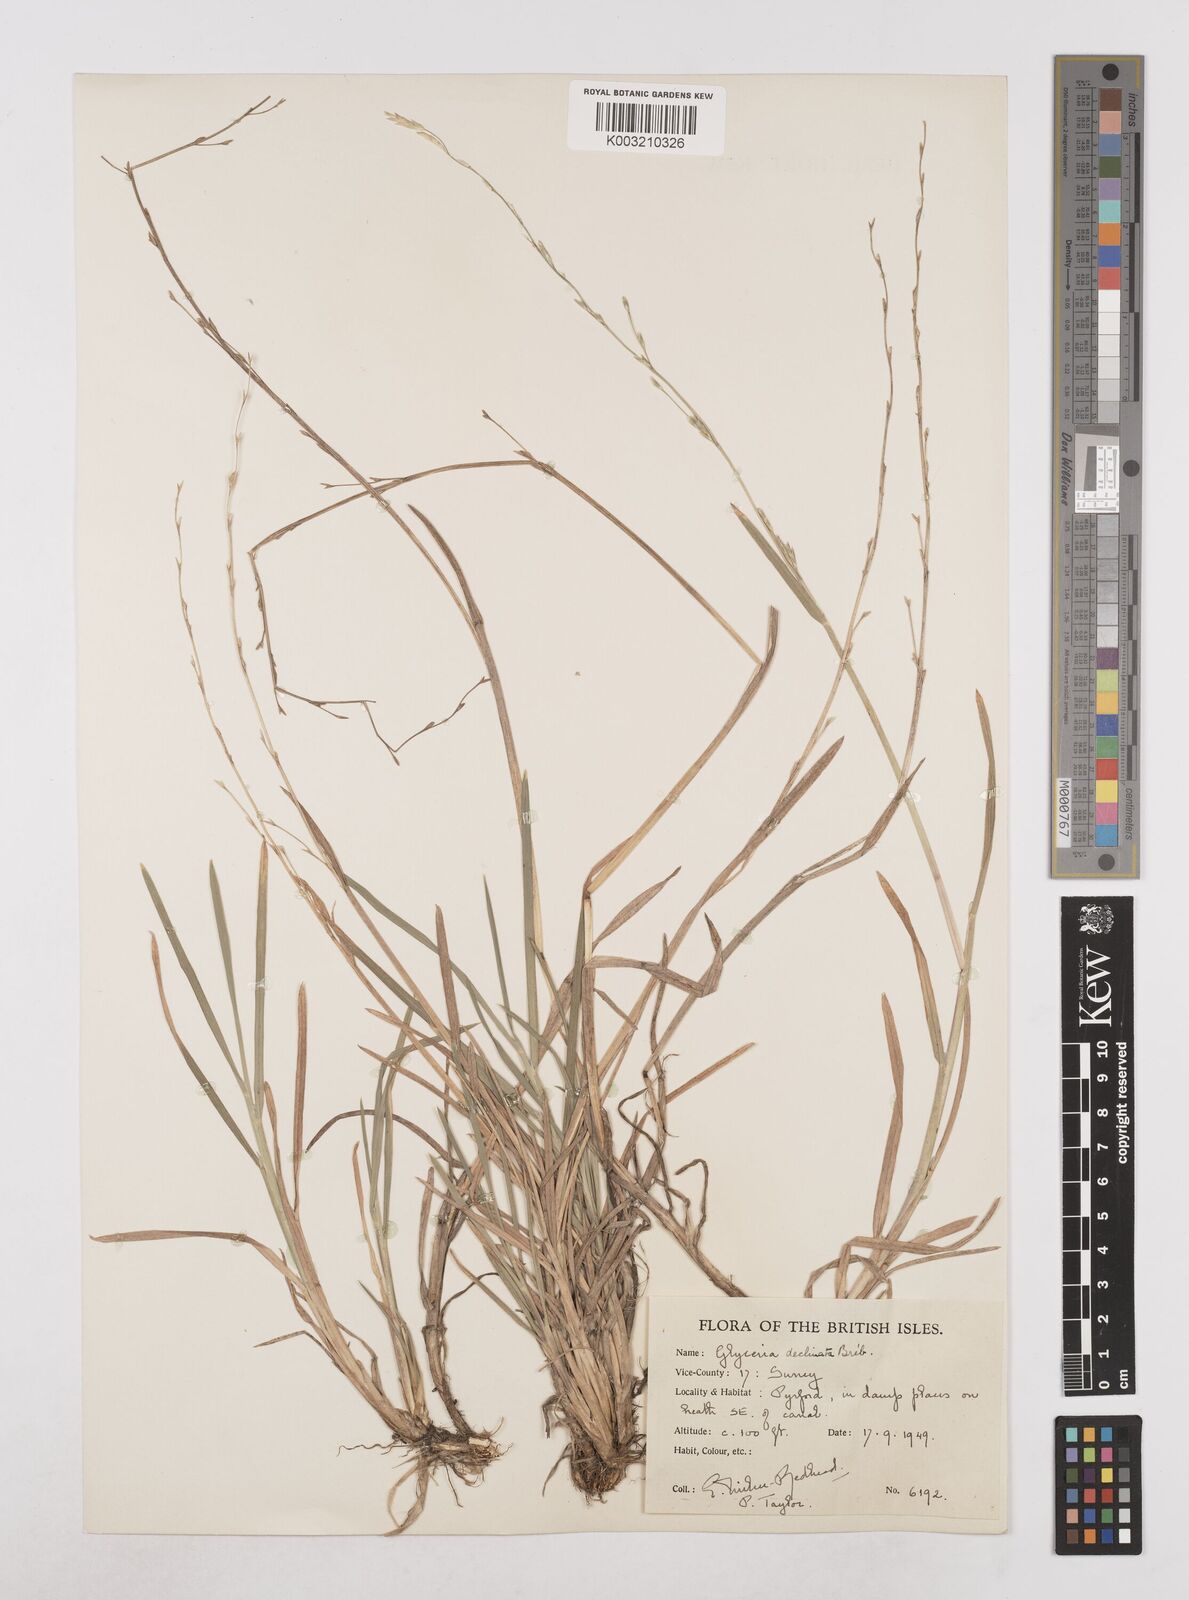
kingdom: Plantae
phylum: Tracheophyta
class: Liliopsida
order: Poales
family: Poaceae
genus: Glyceria
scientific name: Glyceria declinata
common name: Small sweet-grass
